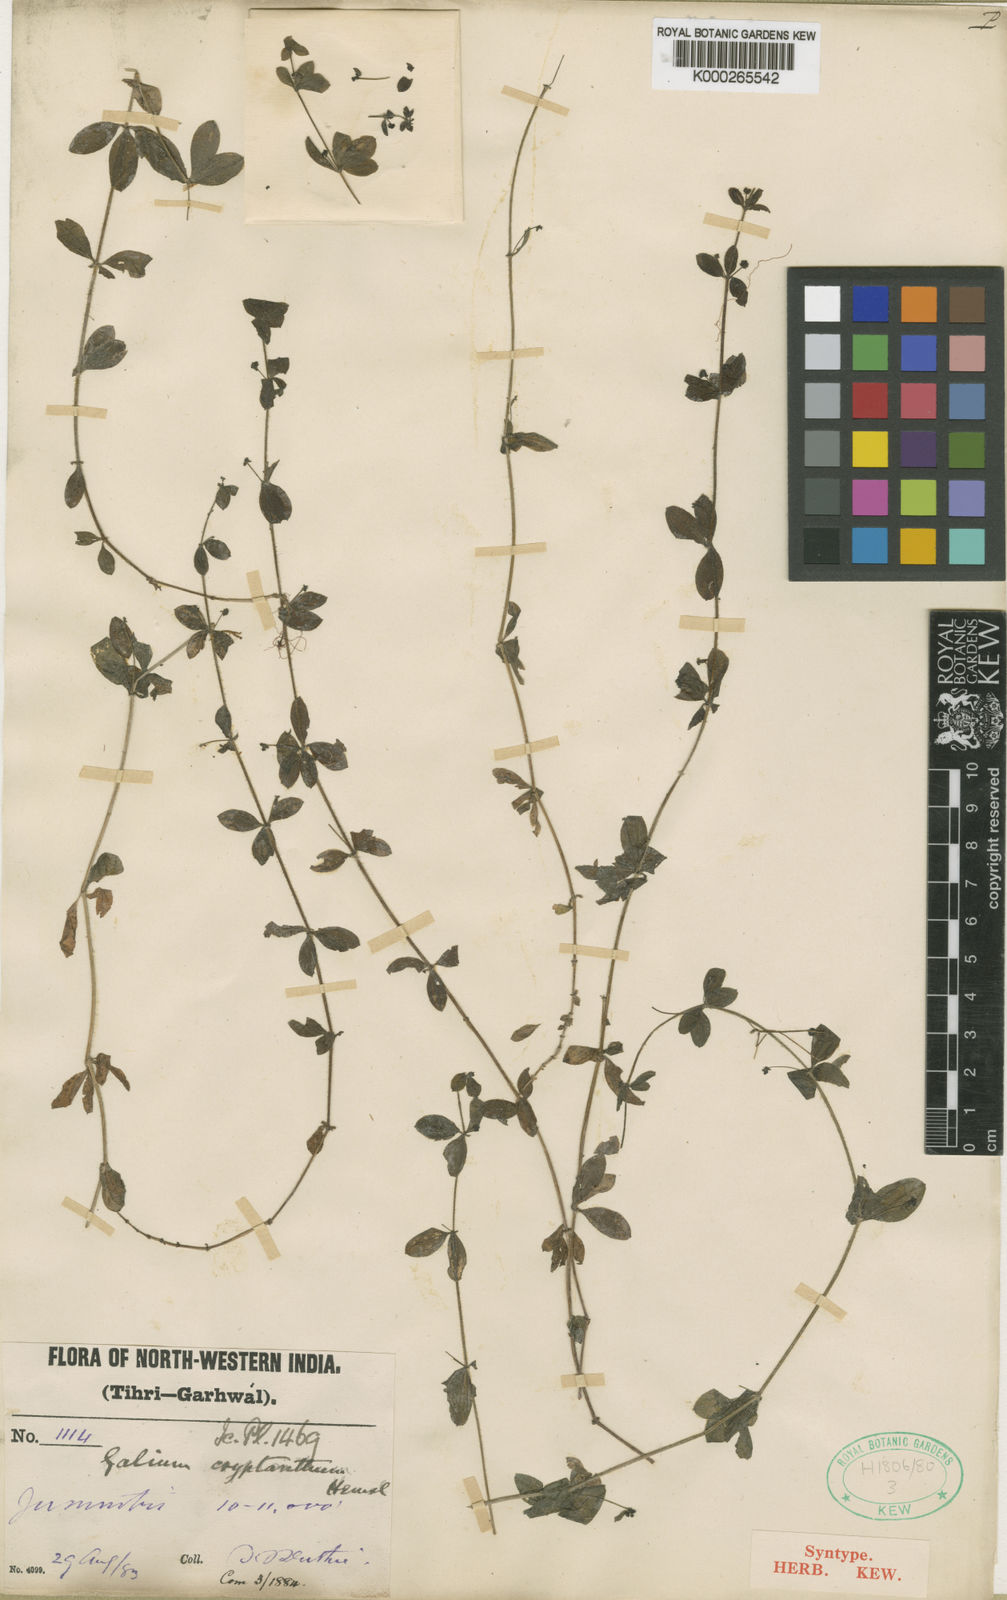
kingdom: Plantae
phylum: Tracheophyta
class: Magnoliopsida
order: Gentianales
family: Rubiaceae
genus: Galium
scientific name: Galium cryptanthum
